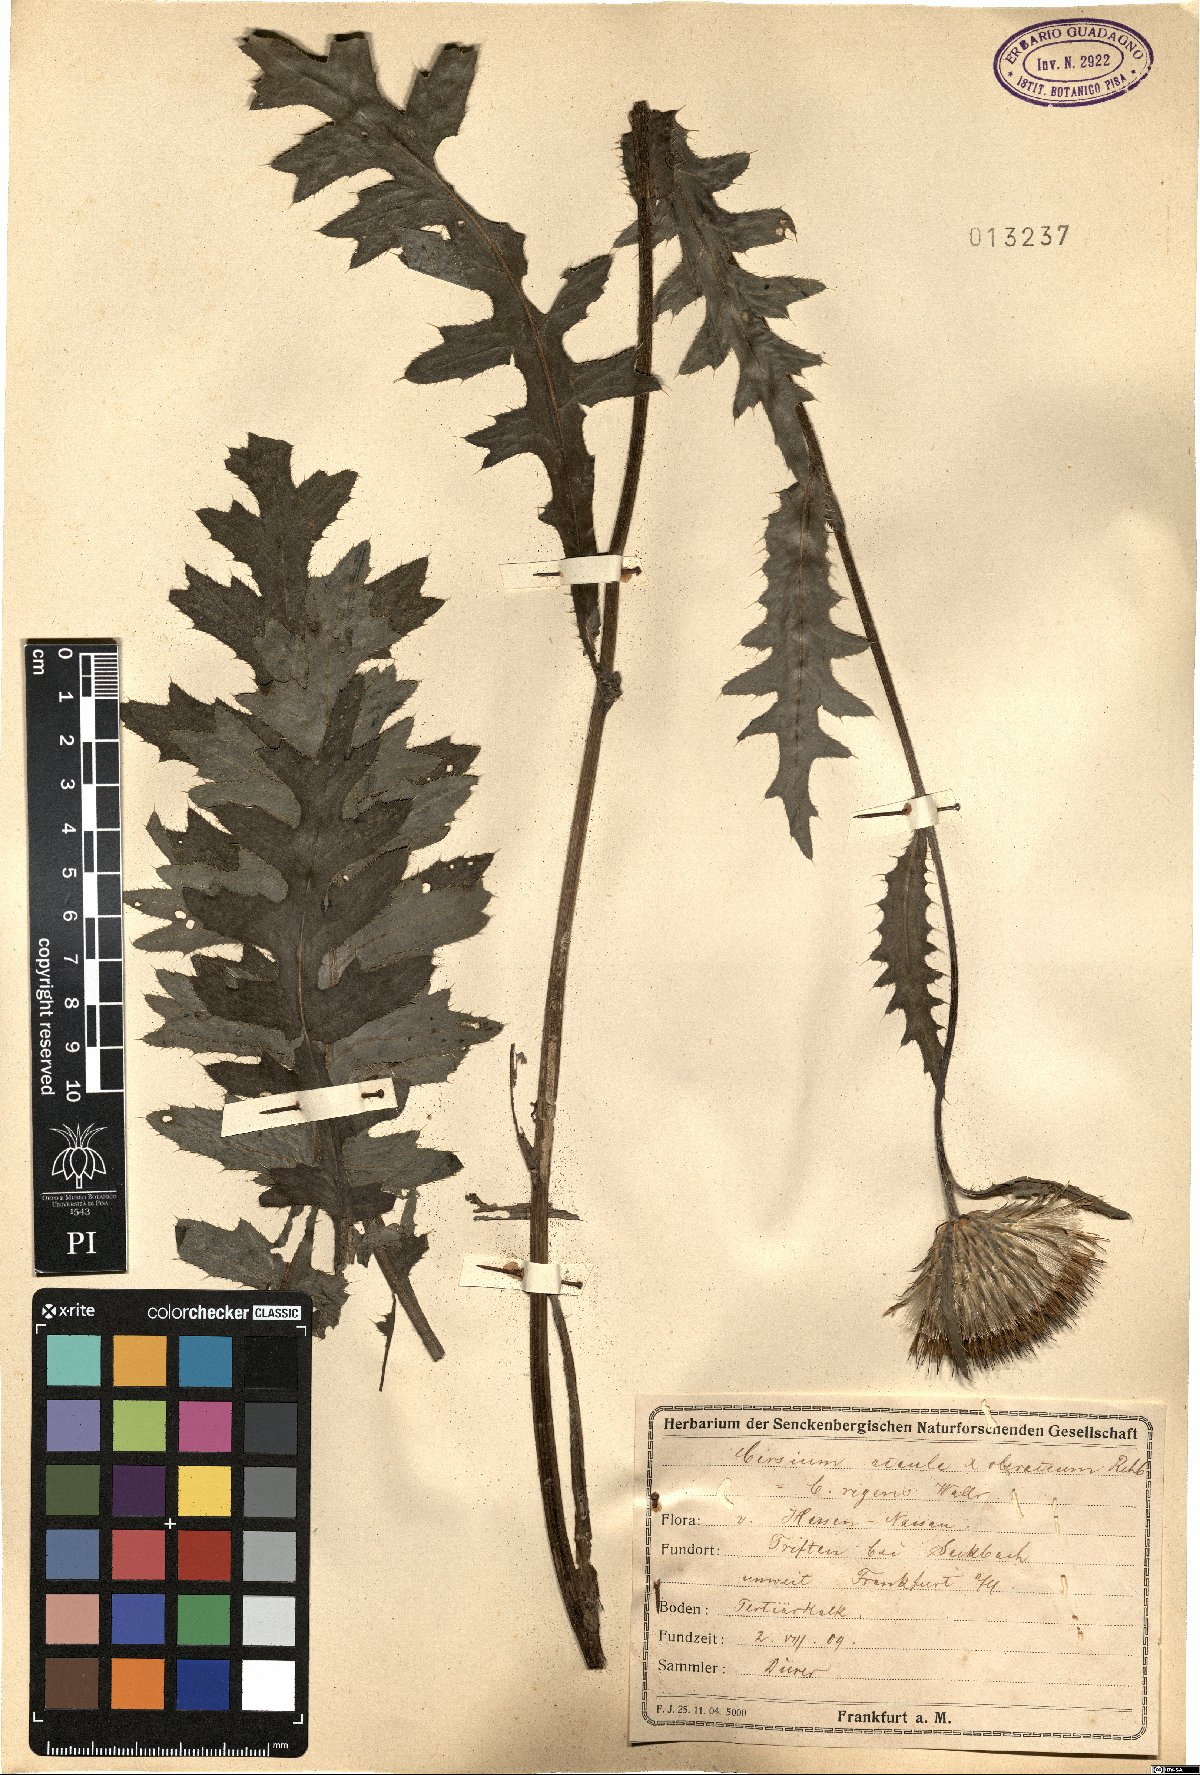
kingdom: Plantae
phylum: Tracheophyta
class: Magnoliopsida
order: Asterales
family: Asteraceae
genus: Cirsium
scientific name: Cirsium rigens
